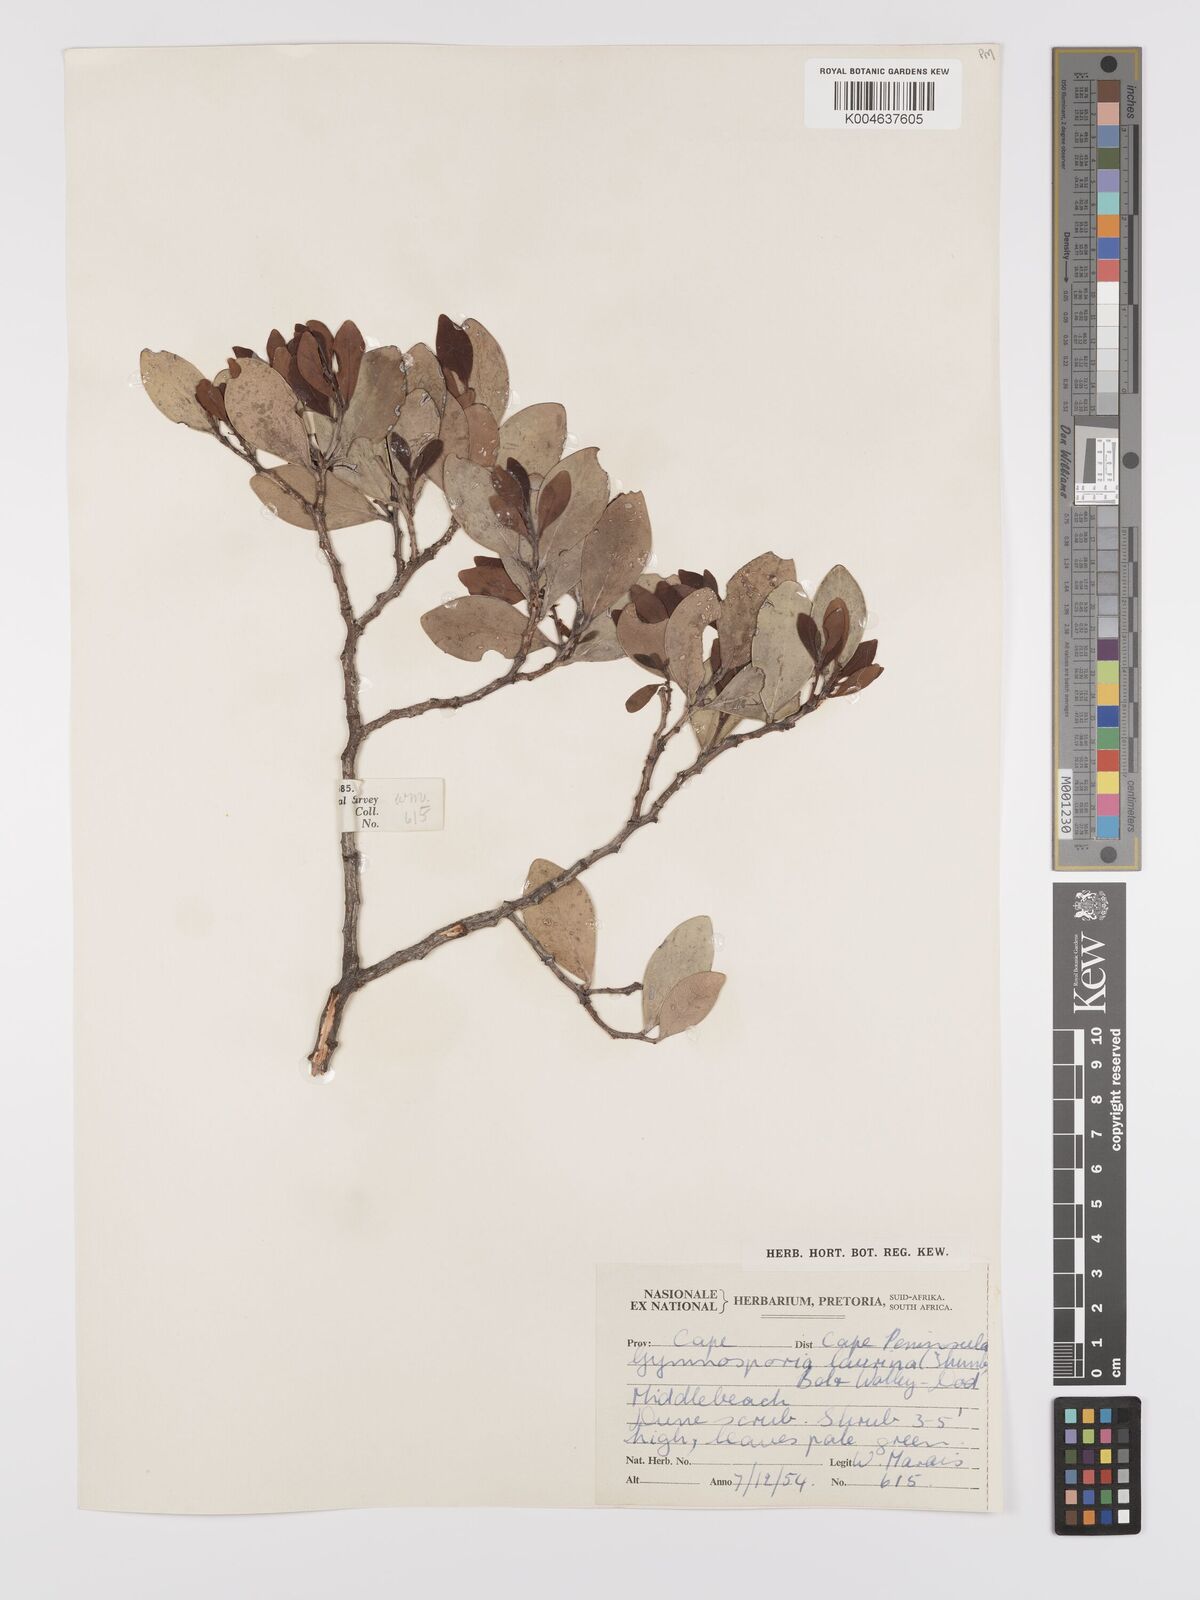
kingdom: Plantae
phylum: Tracheophyta
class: Magnoliopsida
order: Celastrales
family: Celastraceae
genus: Monteverdia
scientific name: Monteverdia laurina
